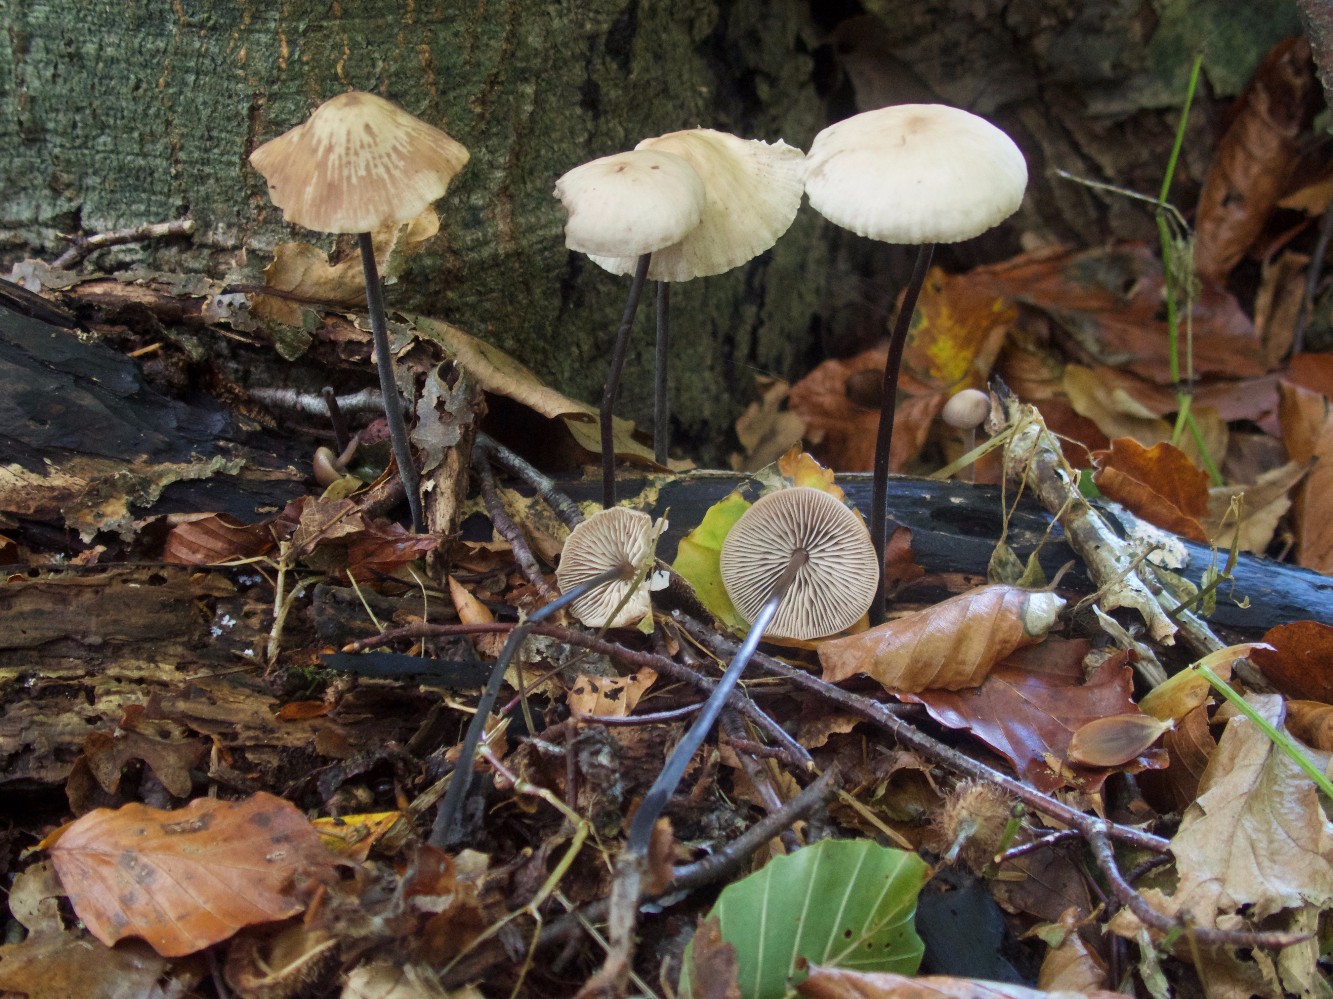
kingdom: Fungi
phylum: Basidiomycota
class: Agaricomycetes
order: Agaricales
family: Omphalotaceae
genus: Mycetinis
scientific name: Mycetinis alliaceus
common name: stor løghat
